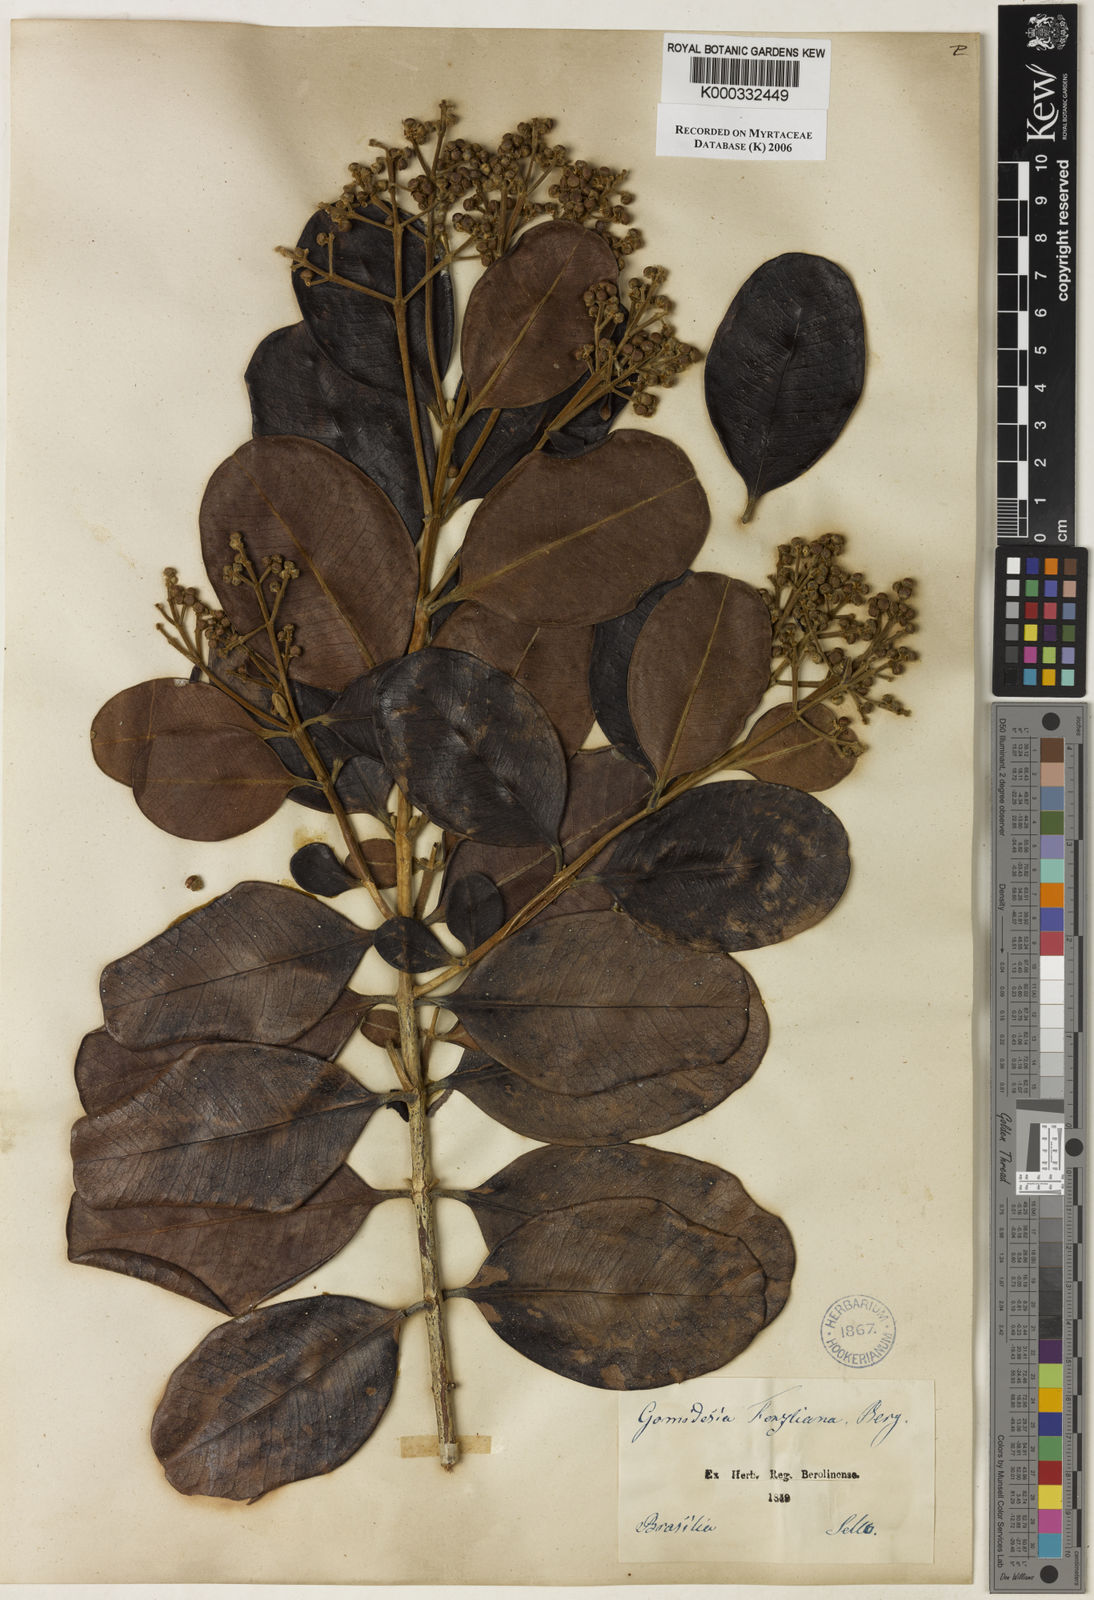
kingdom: Plantae
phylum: Tracheophyta
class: Magnoliopsida
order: Myrtales
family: Myrtaceae
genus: Myrcia
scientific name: Myrcia ilheosensis
